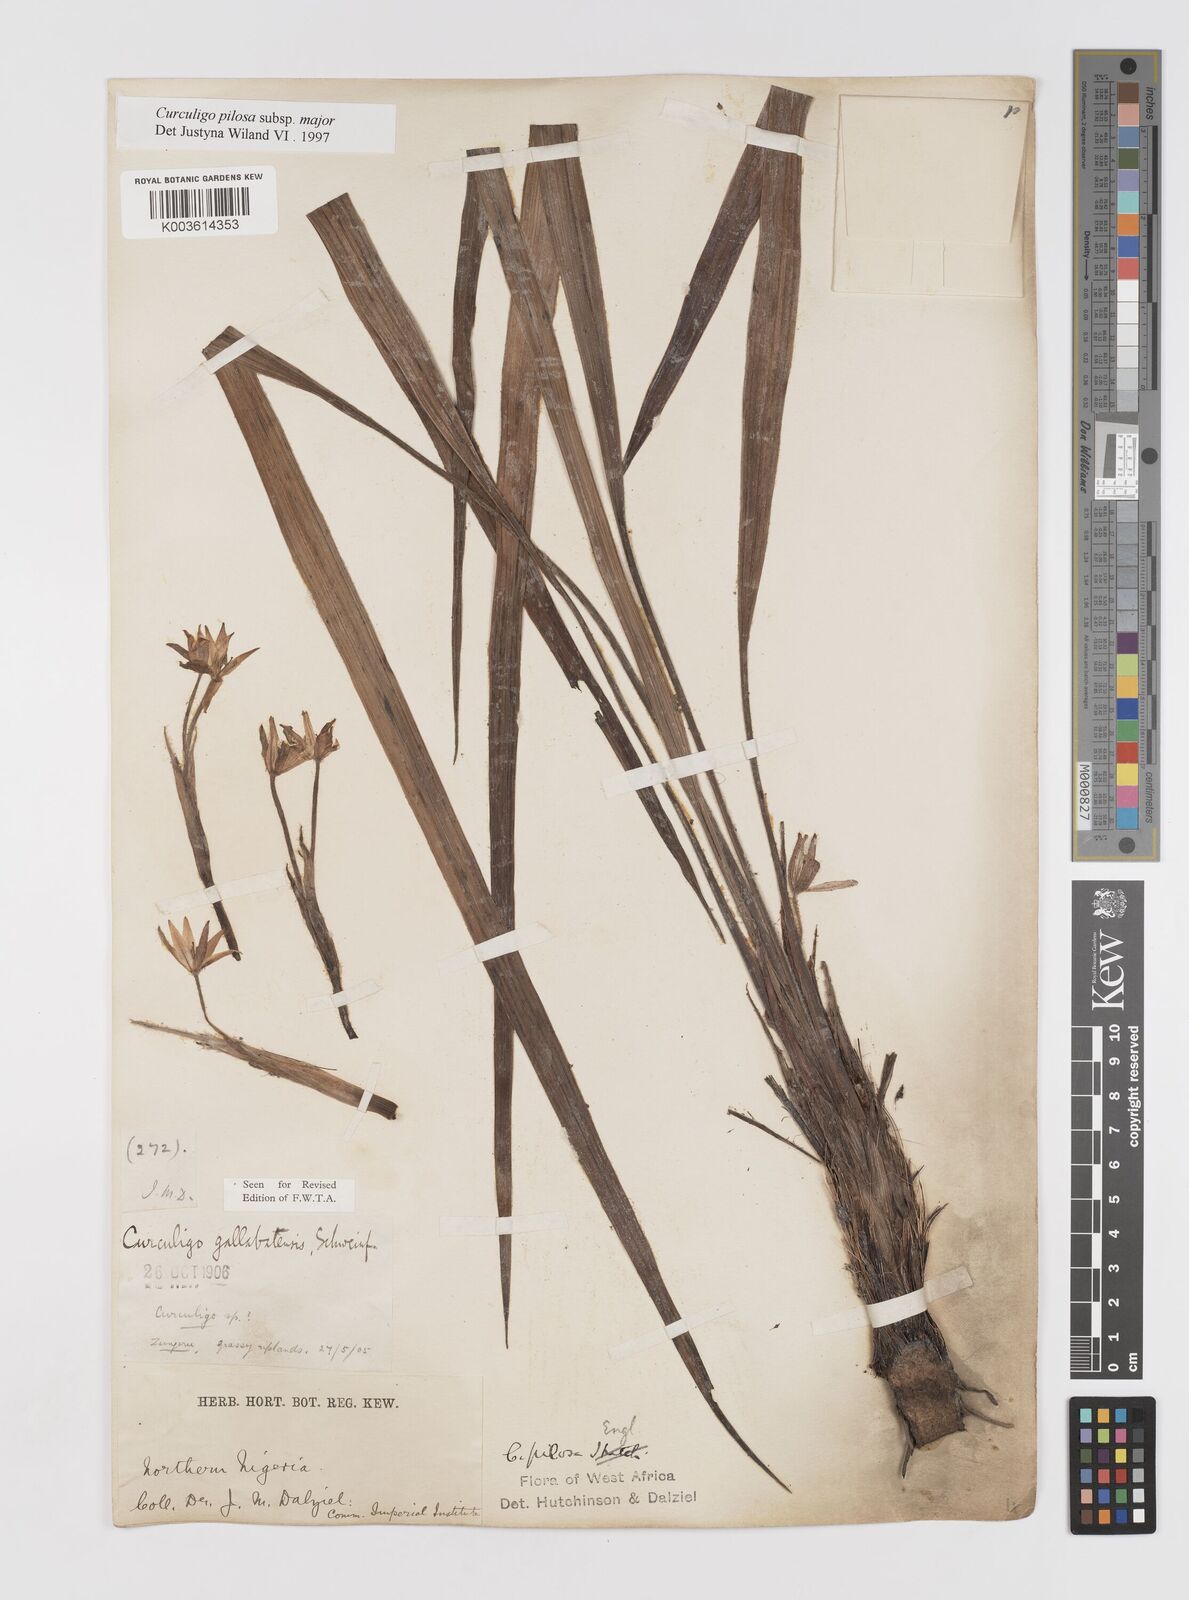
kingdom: Plantae
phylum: Tracheophyta
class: Liliopsida
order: Asparagales
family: Hypoxidaceae
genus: Curculigo
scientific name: Curculigo pilosa
